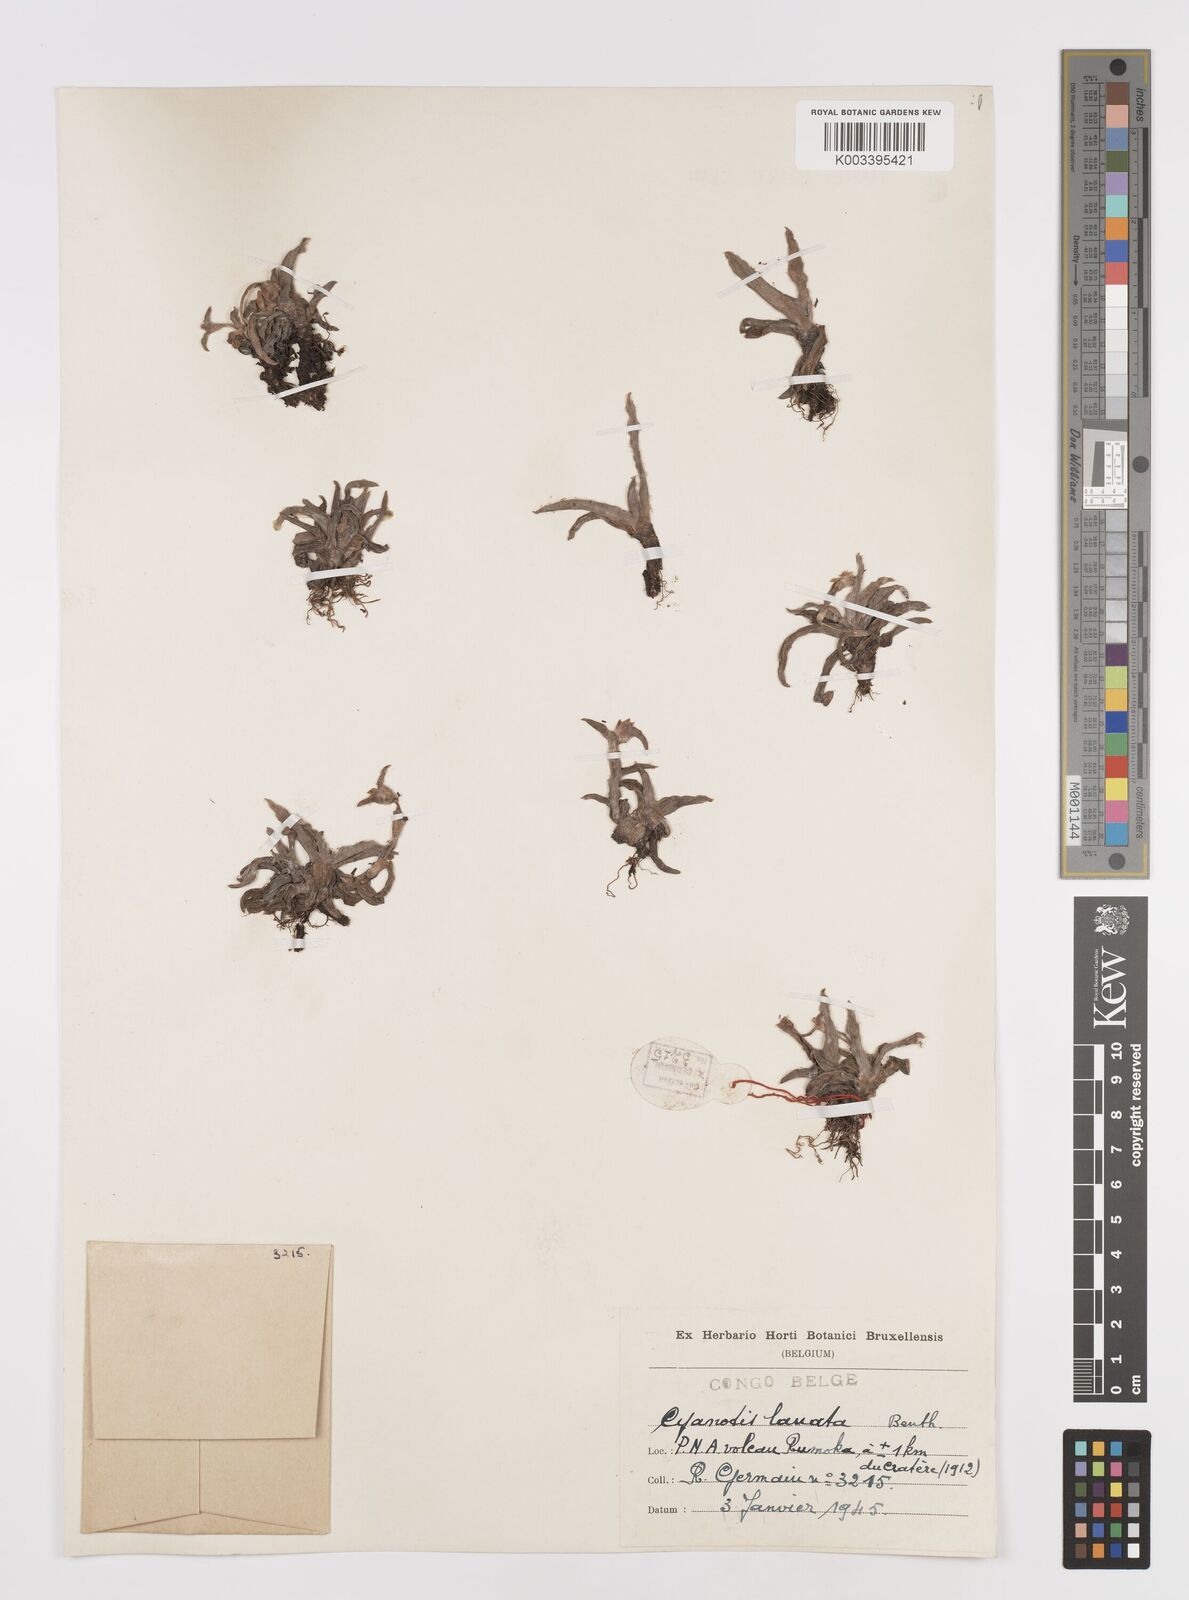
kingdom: Plantae
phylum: Tracheophyta
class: Liliopsida
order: Commelinales
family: Commelinaceae
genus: Cyanotis
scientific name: Cyanotis lanata
